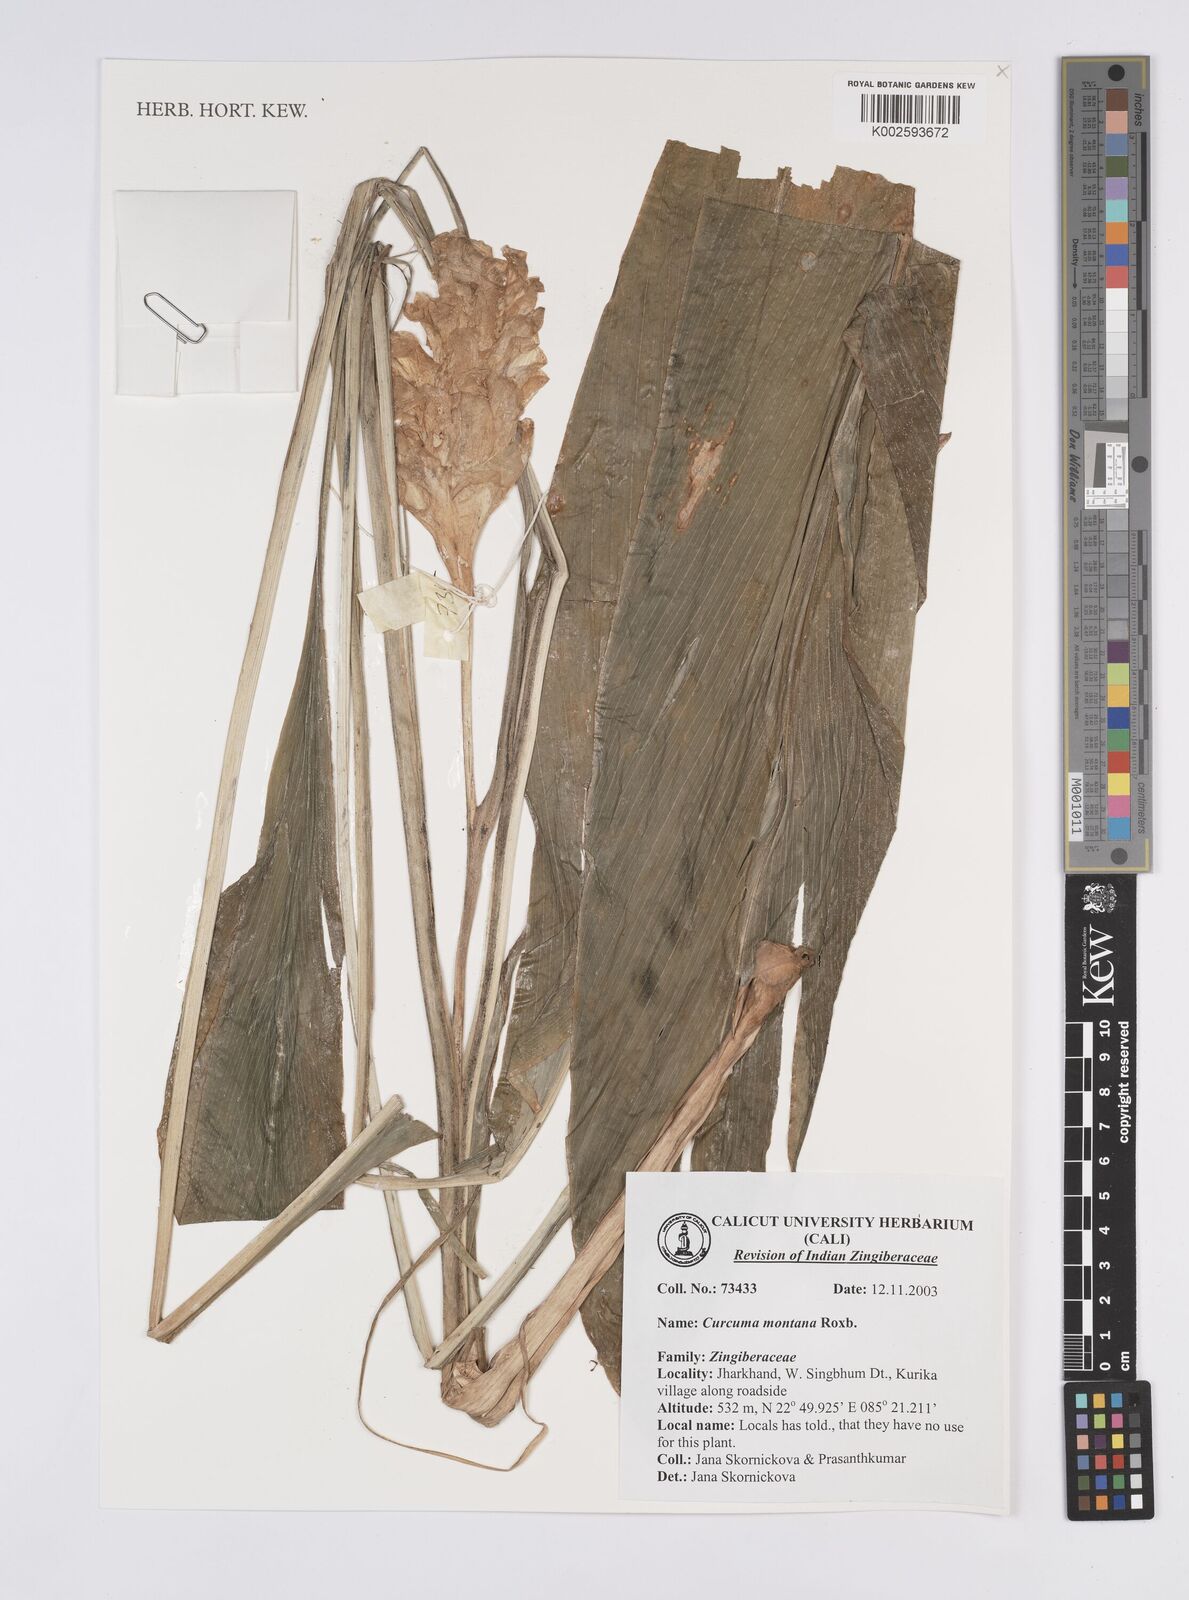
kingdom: Plantae
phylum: Tracheophyta
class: Liliopsida
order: Zingiberales
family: Zingiberaceae
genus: Curcuma
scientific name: Curcuma montana
